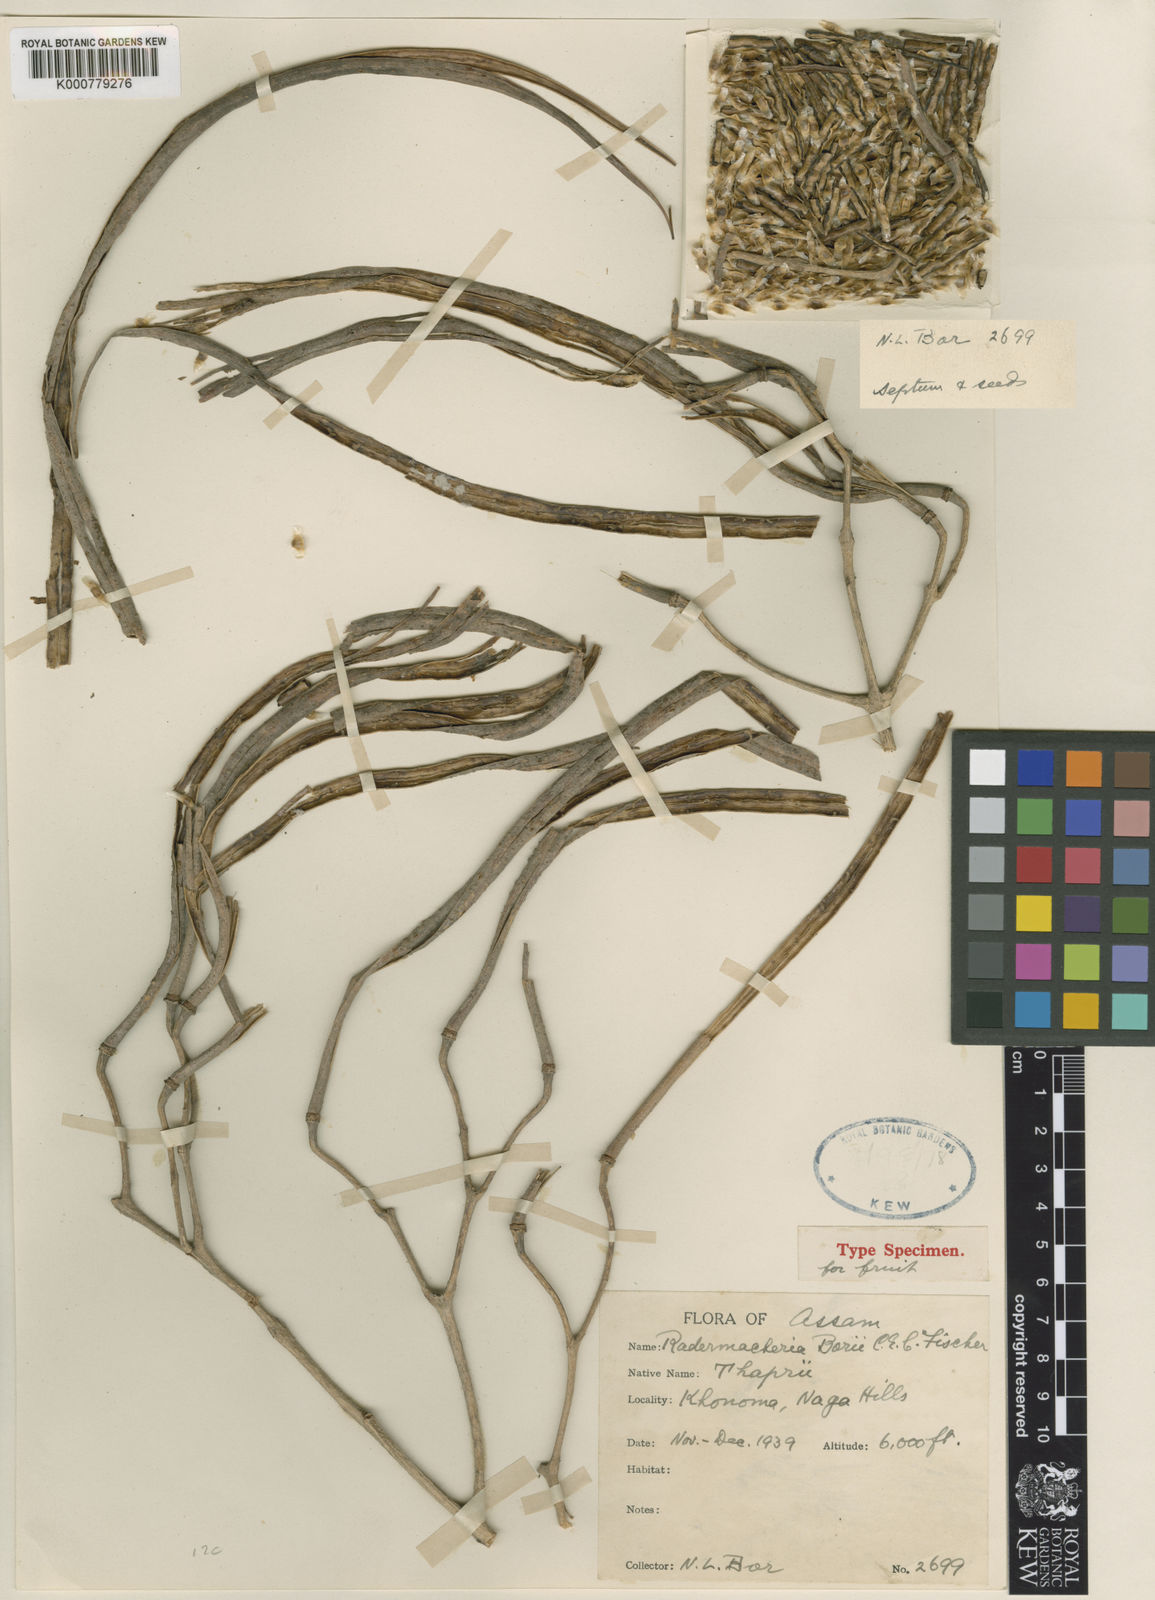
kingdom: Plantae
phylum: Tracheophyta
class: Magnoliopsida
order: Lamiales
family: Bignoniaceae
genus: Radermachera
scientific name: Radermachera sinica
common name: China doll plant
